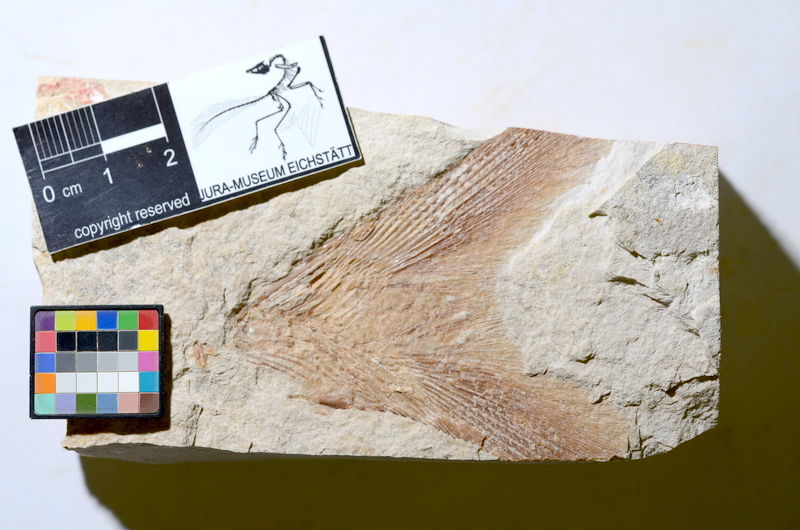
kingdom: Animalia
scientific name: Animalia
